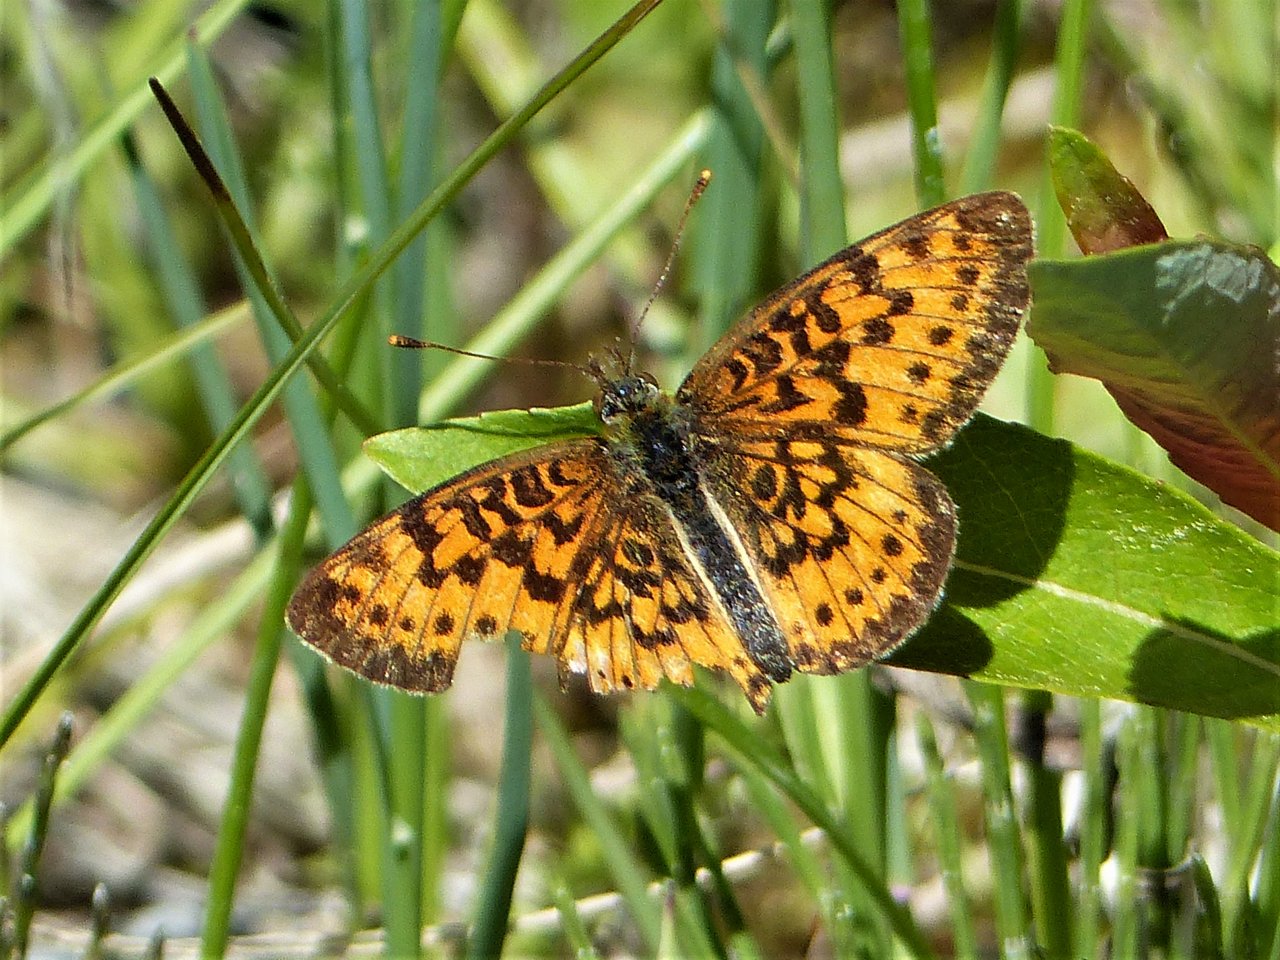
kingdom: Animalia
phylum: Arthropoda
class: Insecta
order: Lepidoptera
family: Nymphalidae
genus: Boloria
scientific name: Boloria selene
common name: Silver-bordered Fritillary
